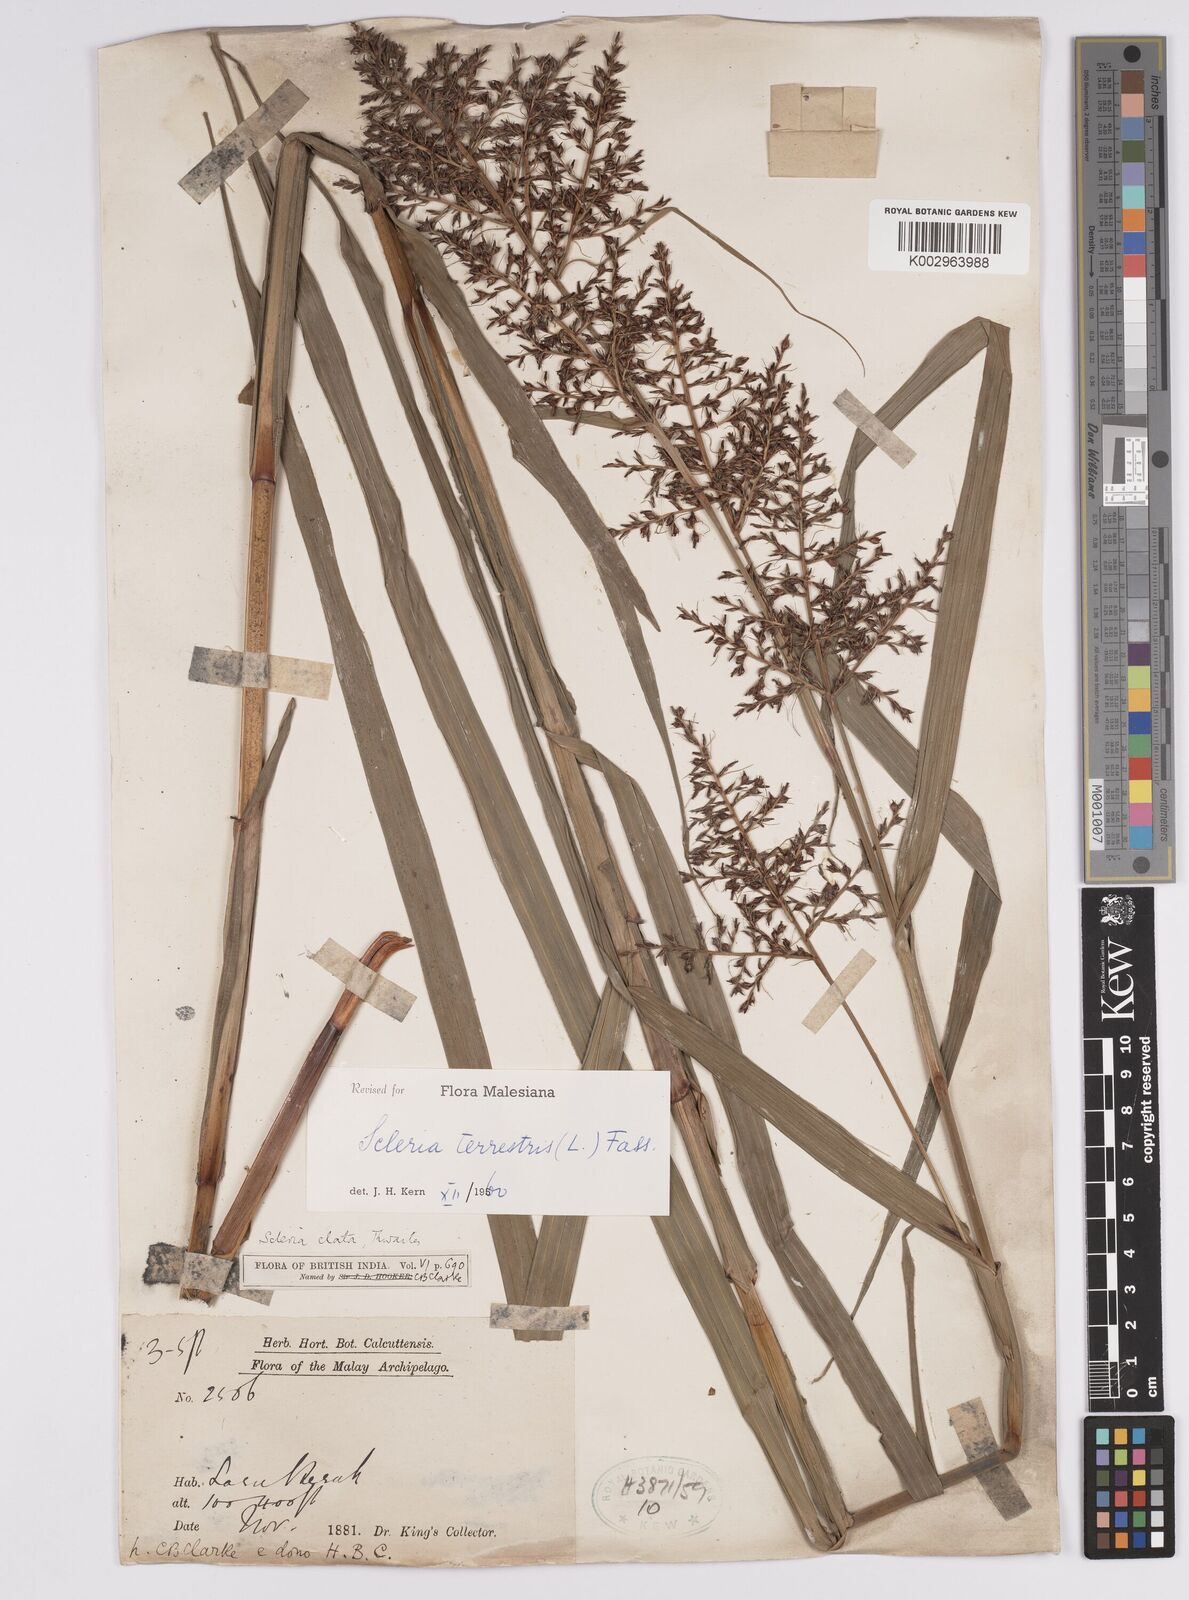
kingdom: Plantae
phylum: Tracheophyta
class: Liliopsida
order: Poales
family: Cyperaceae
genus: Scleria
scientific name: Scleria terrestris
